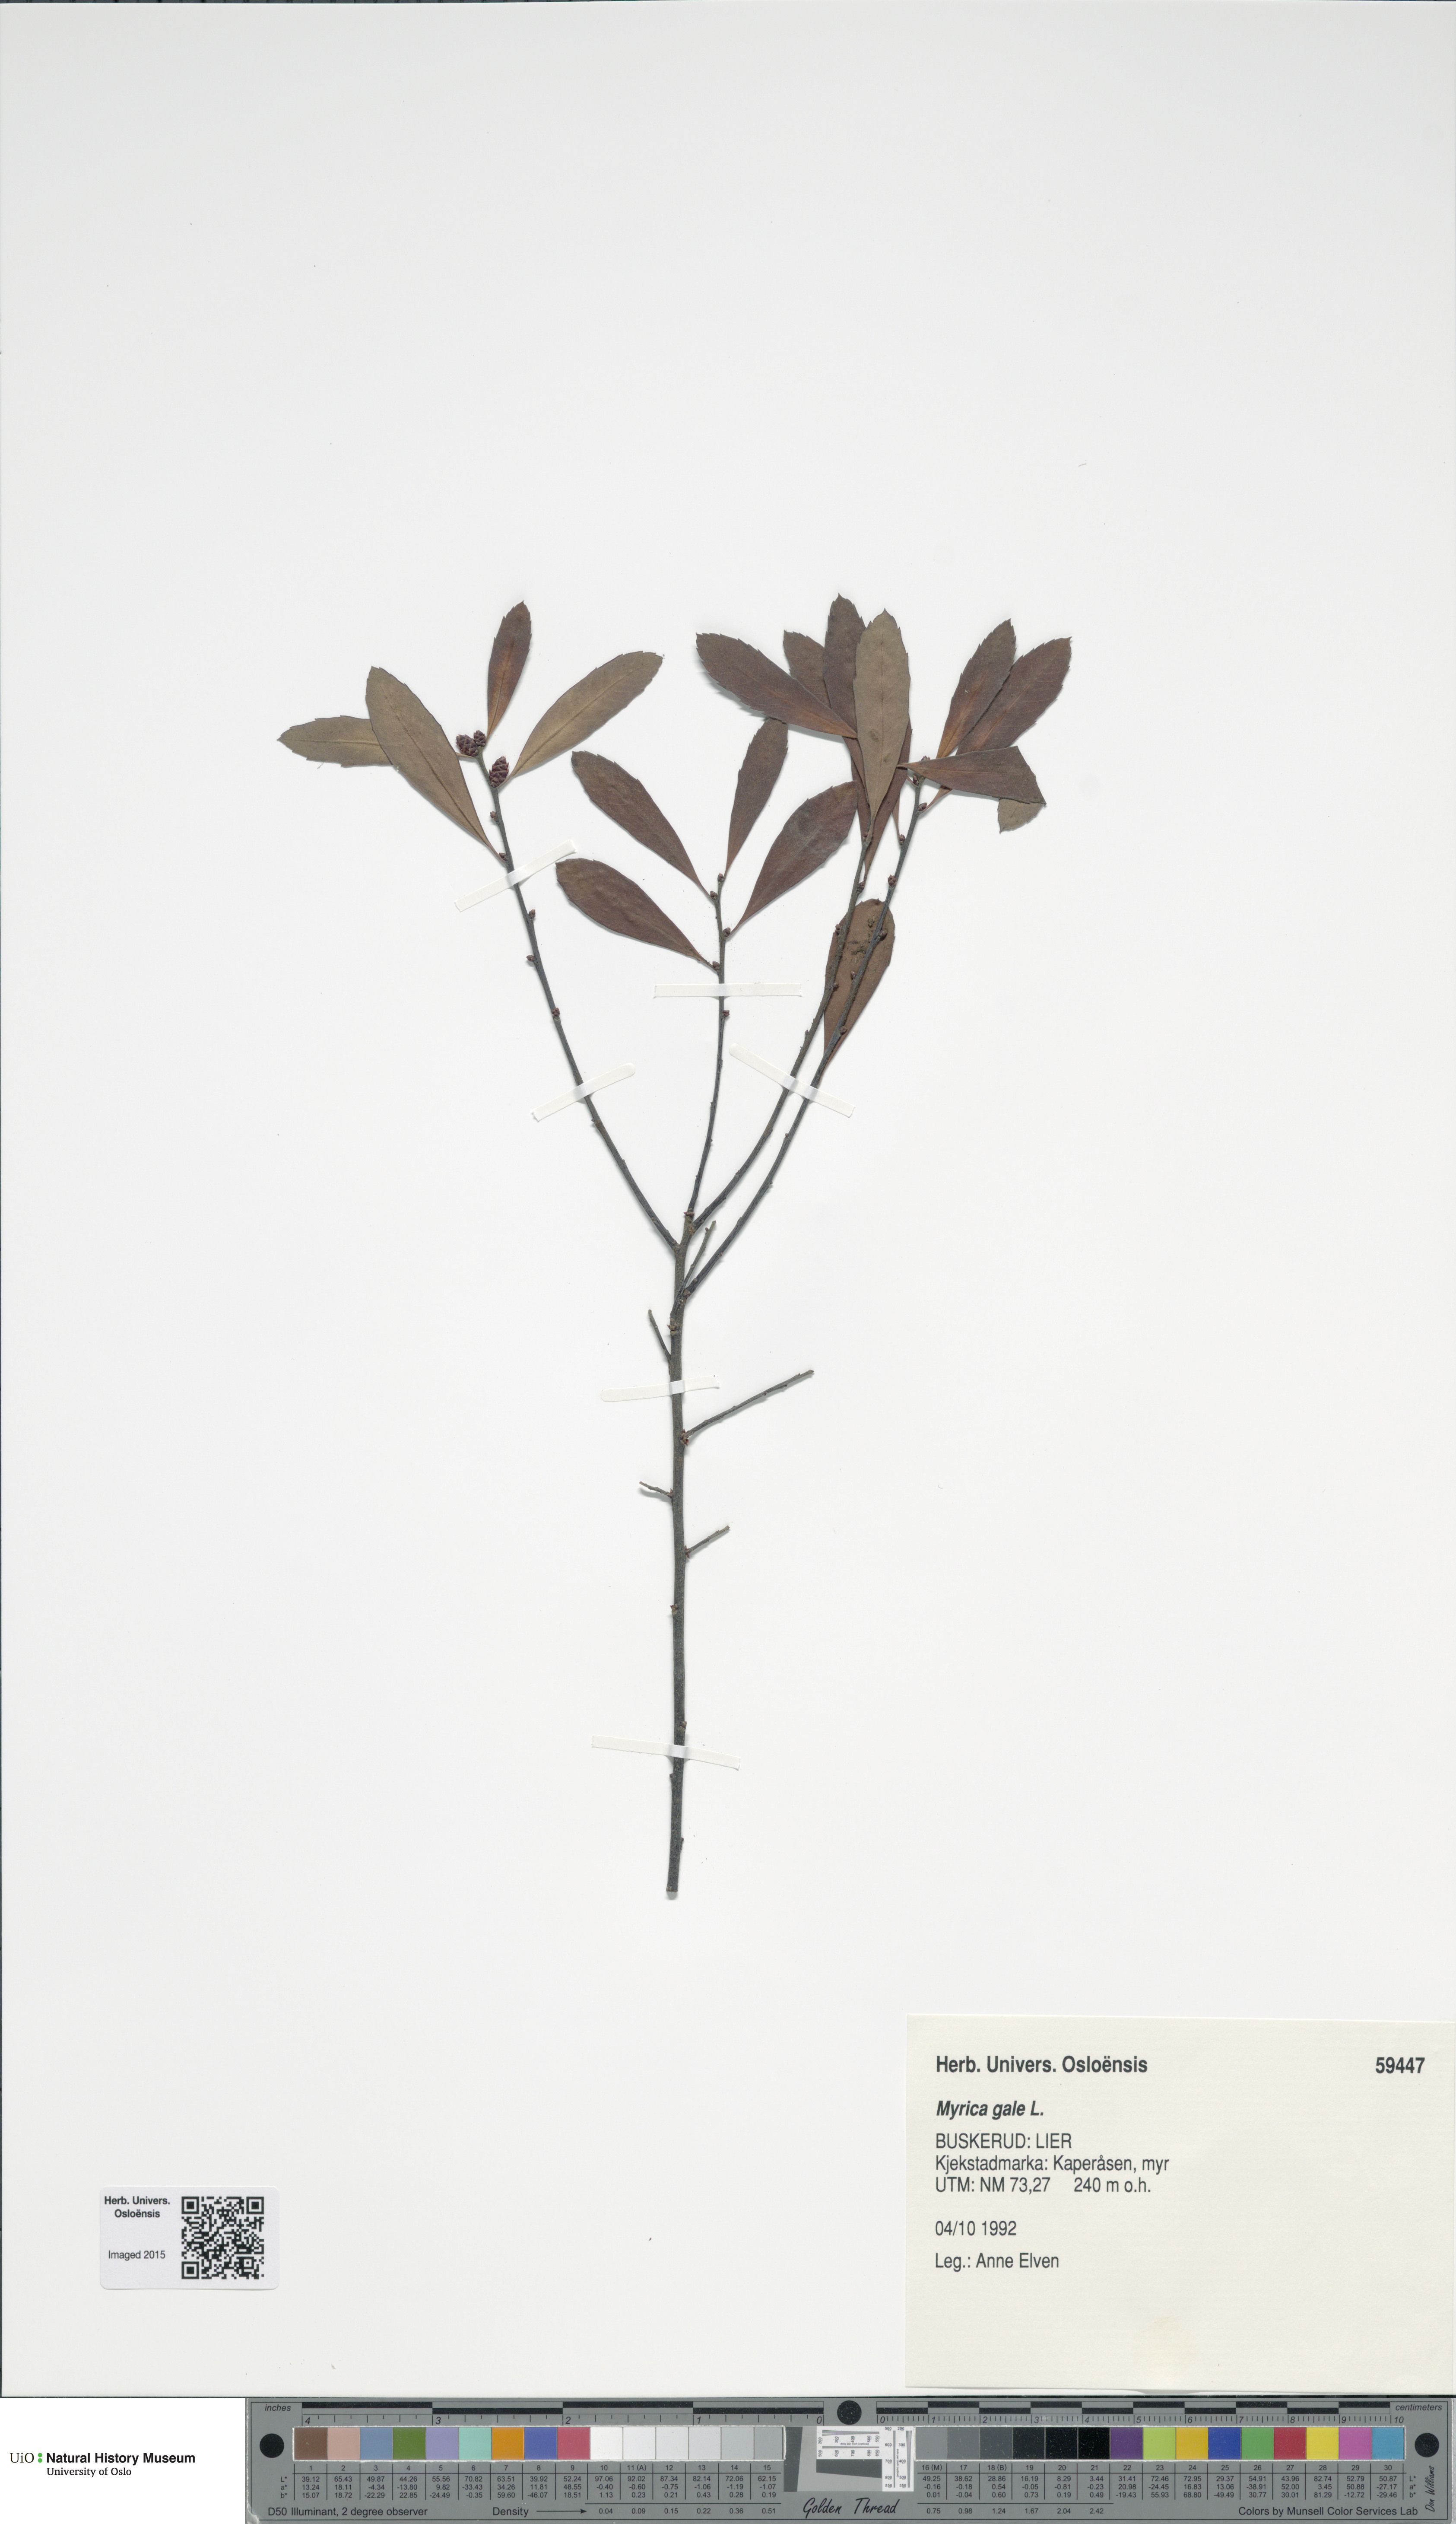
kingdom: Plantae
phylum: Tracheophyta
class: Magnoliopsida
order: Fagales
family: Myricaceae
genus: Myrica
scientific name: Myrica gale
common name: Sweet gale
